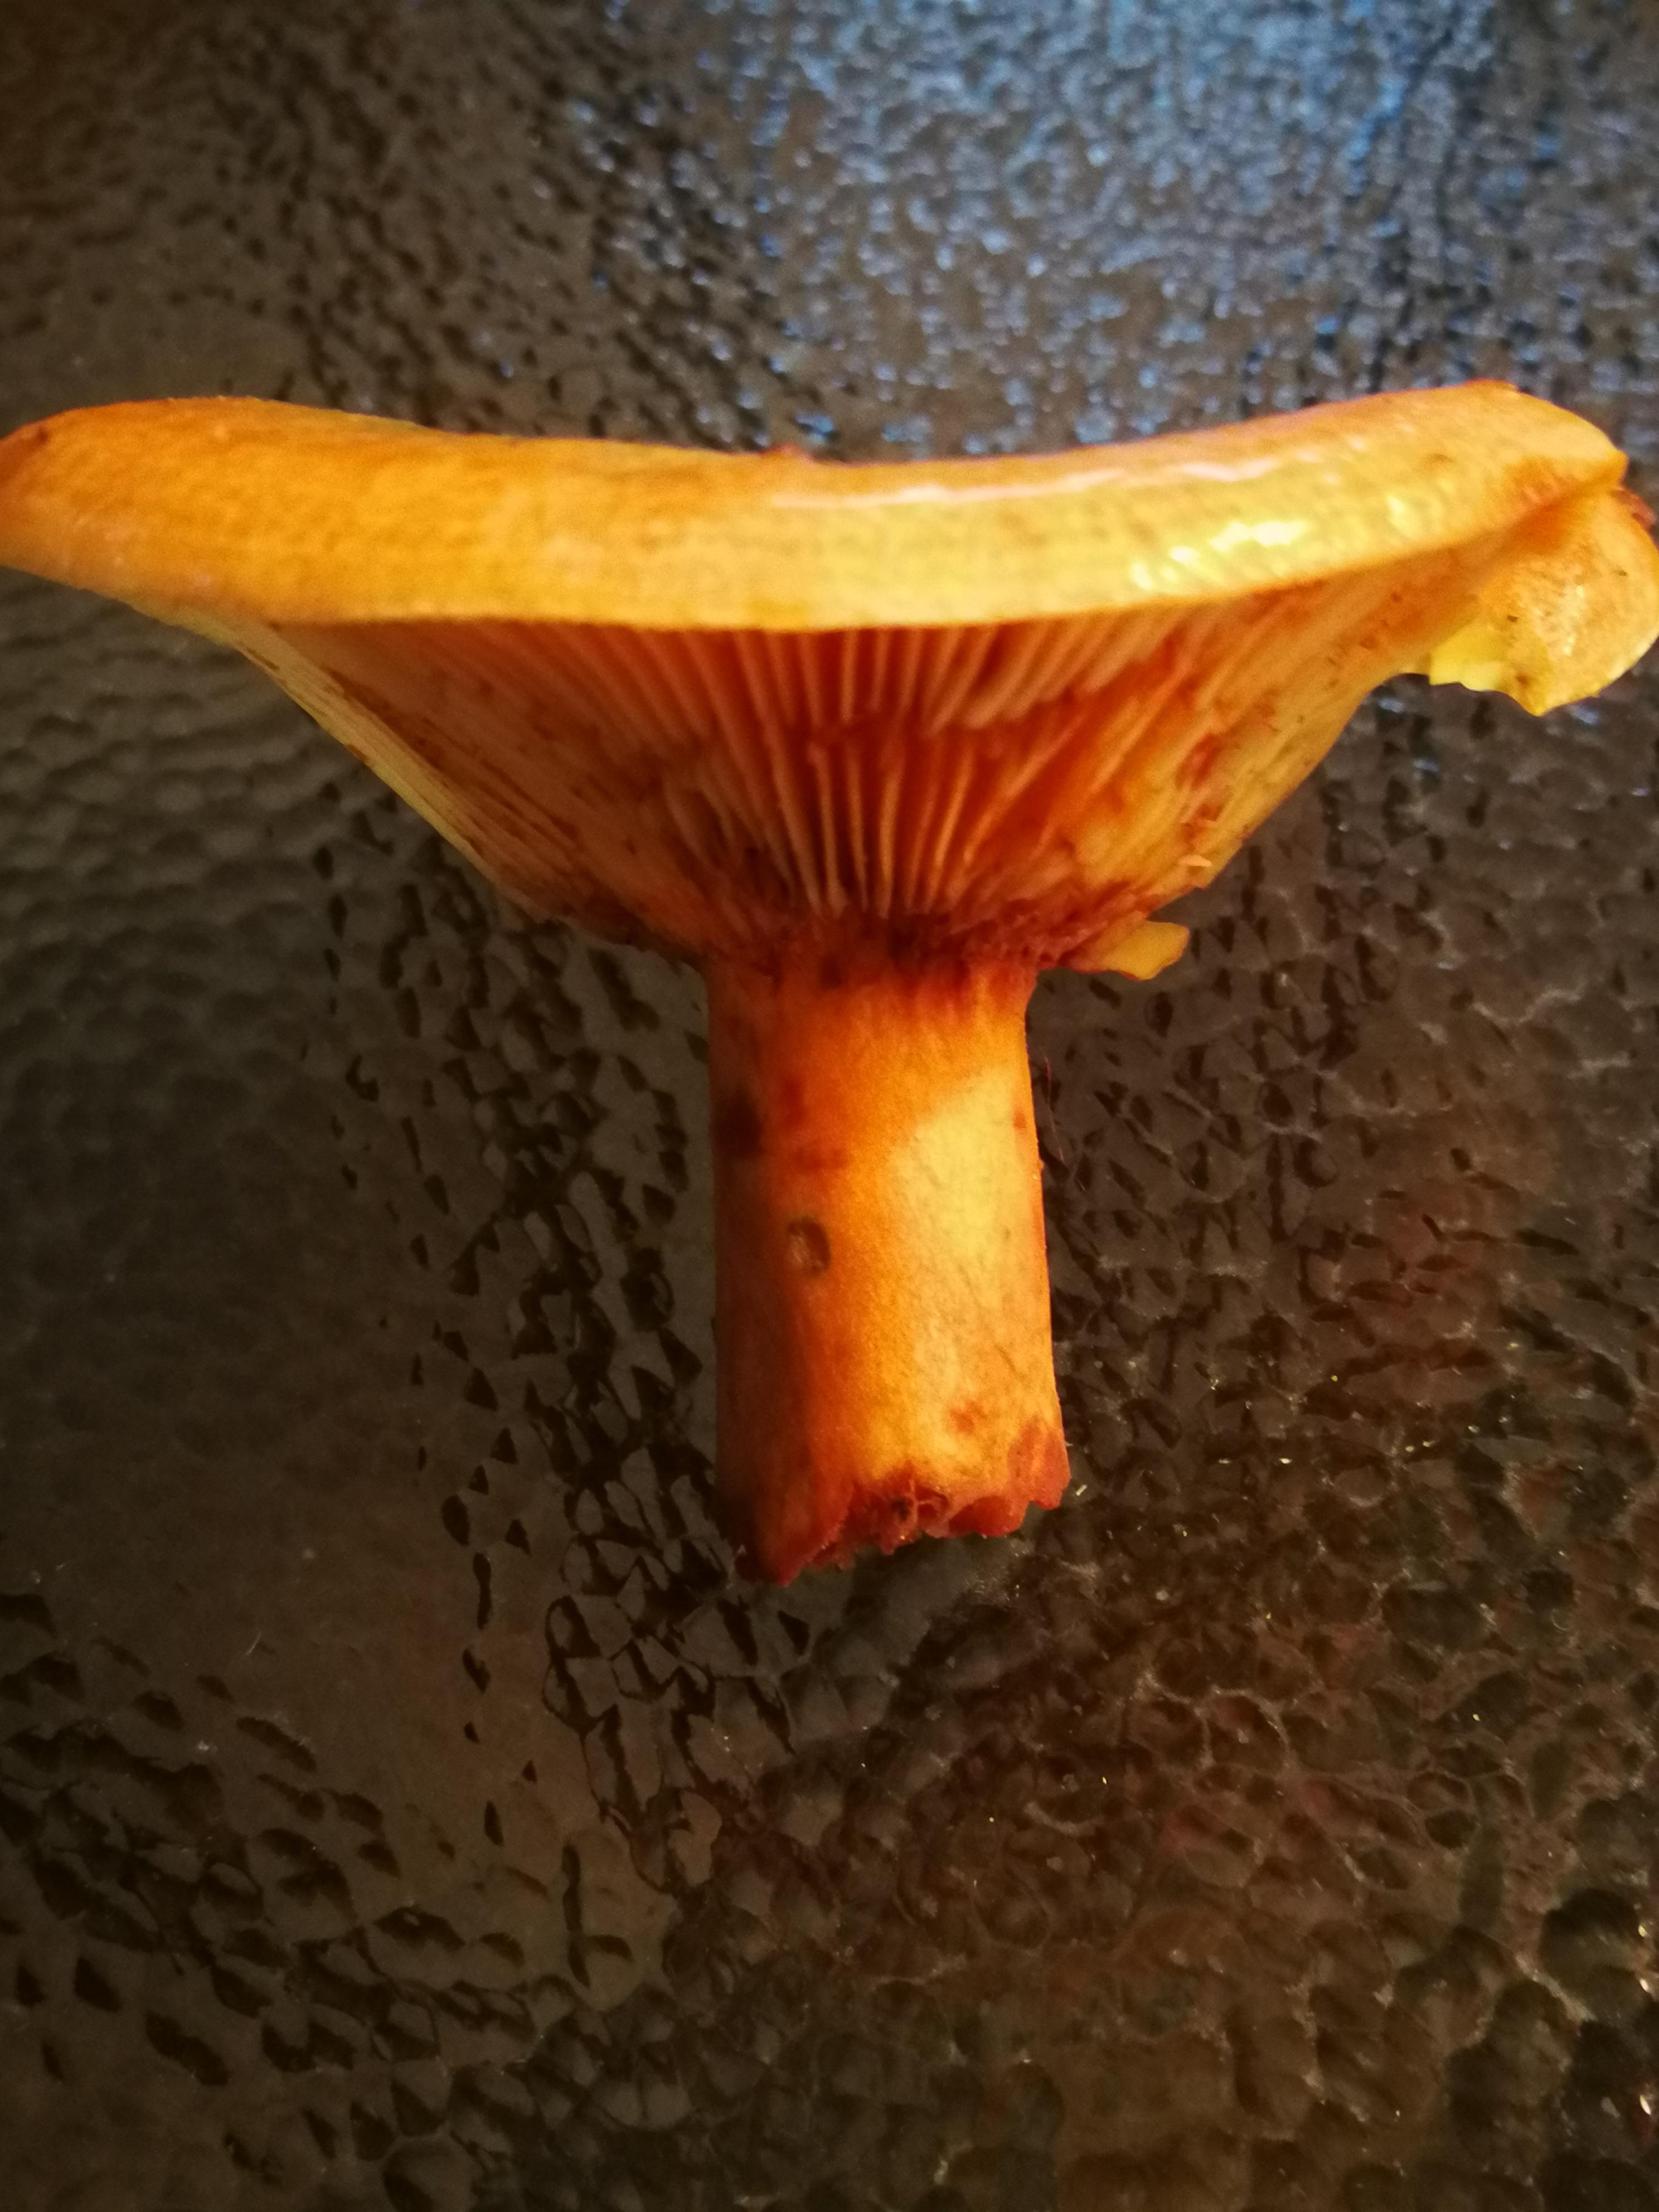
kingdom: Fungi
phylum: Basidiomycota
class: Agaricomycetes
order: Russulales
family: Russulaceae
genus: Lactarius
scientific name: Lactarius deterrimus
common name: gran-mælkehat
